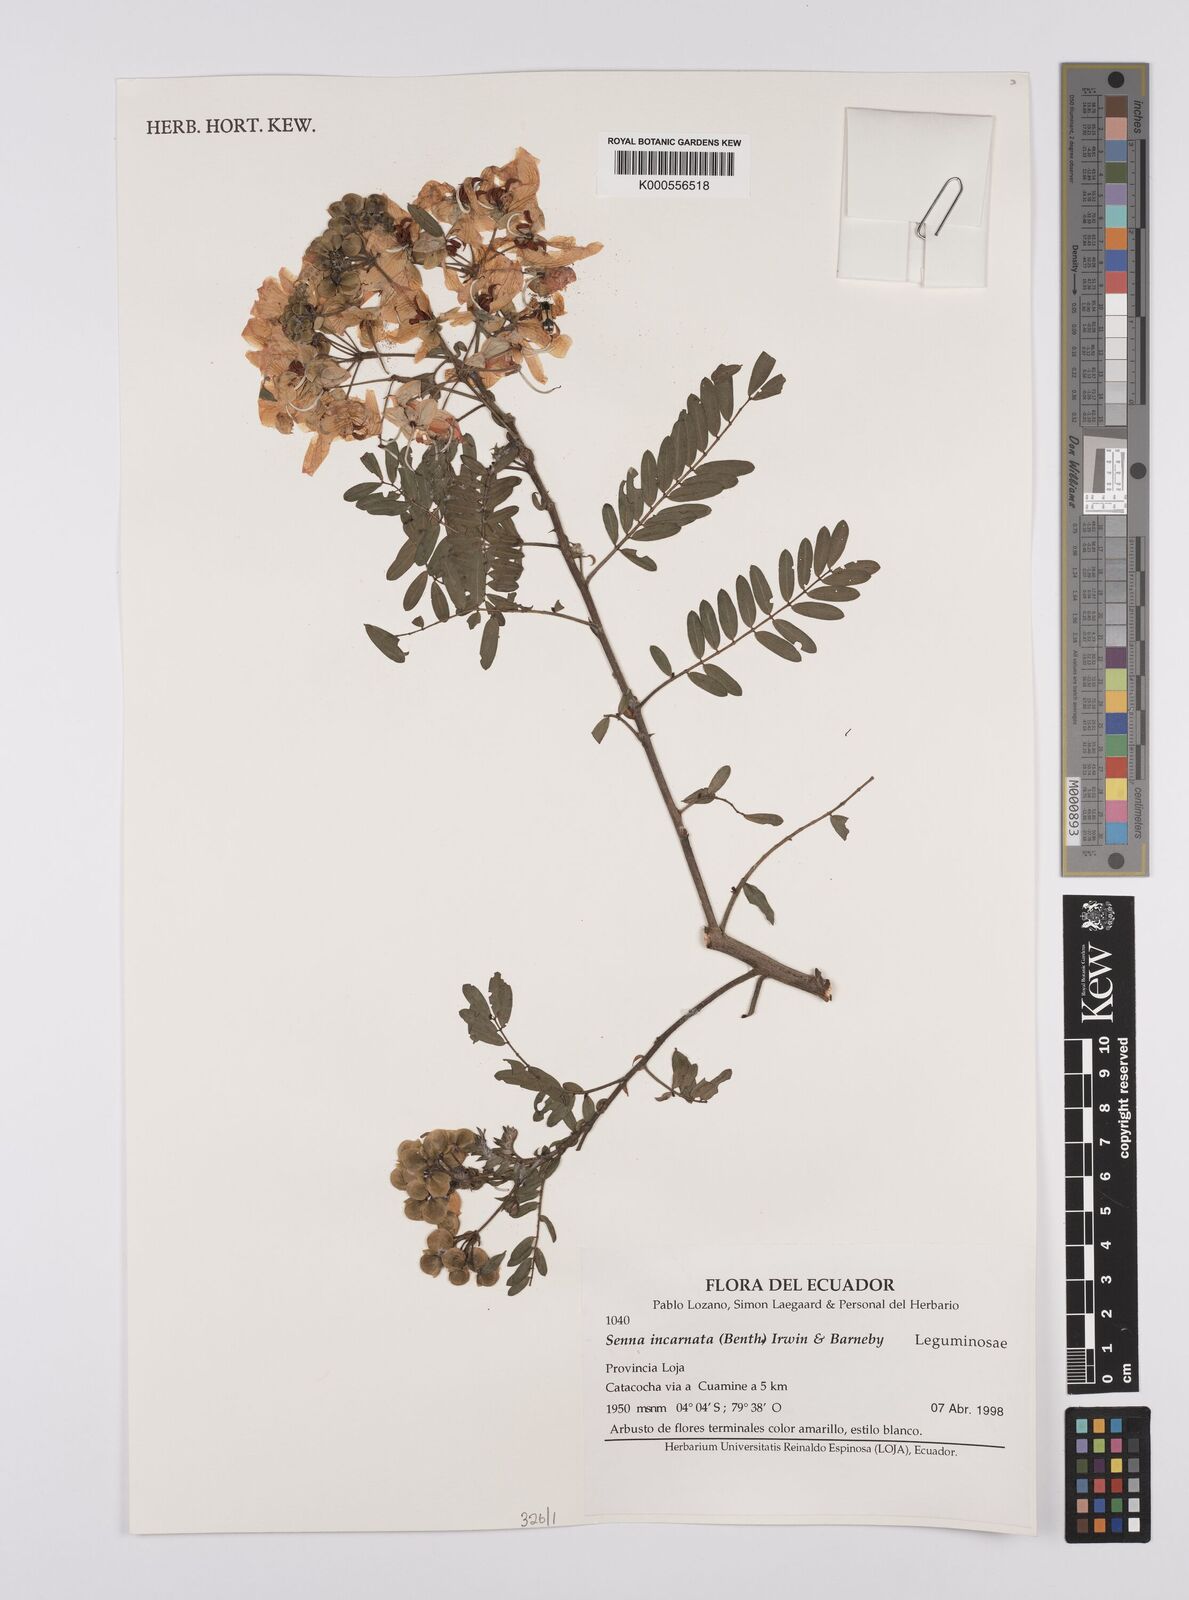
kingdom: Plantae
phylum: Tracheophyta
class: Magnoliopsida
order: Fabales
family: Fabaceae
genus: Senna
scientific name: Senna incarnata
